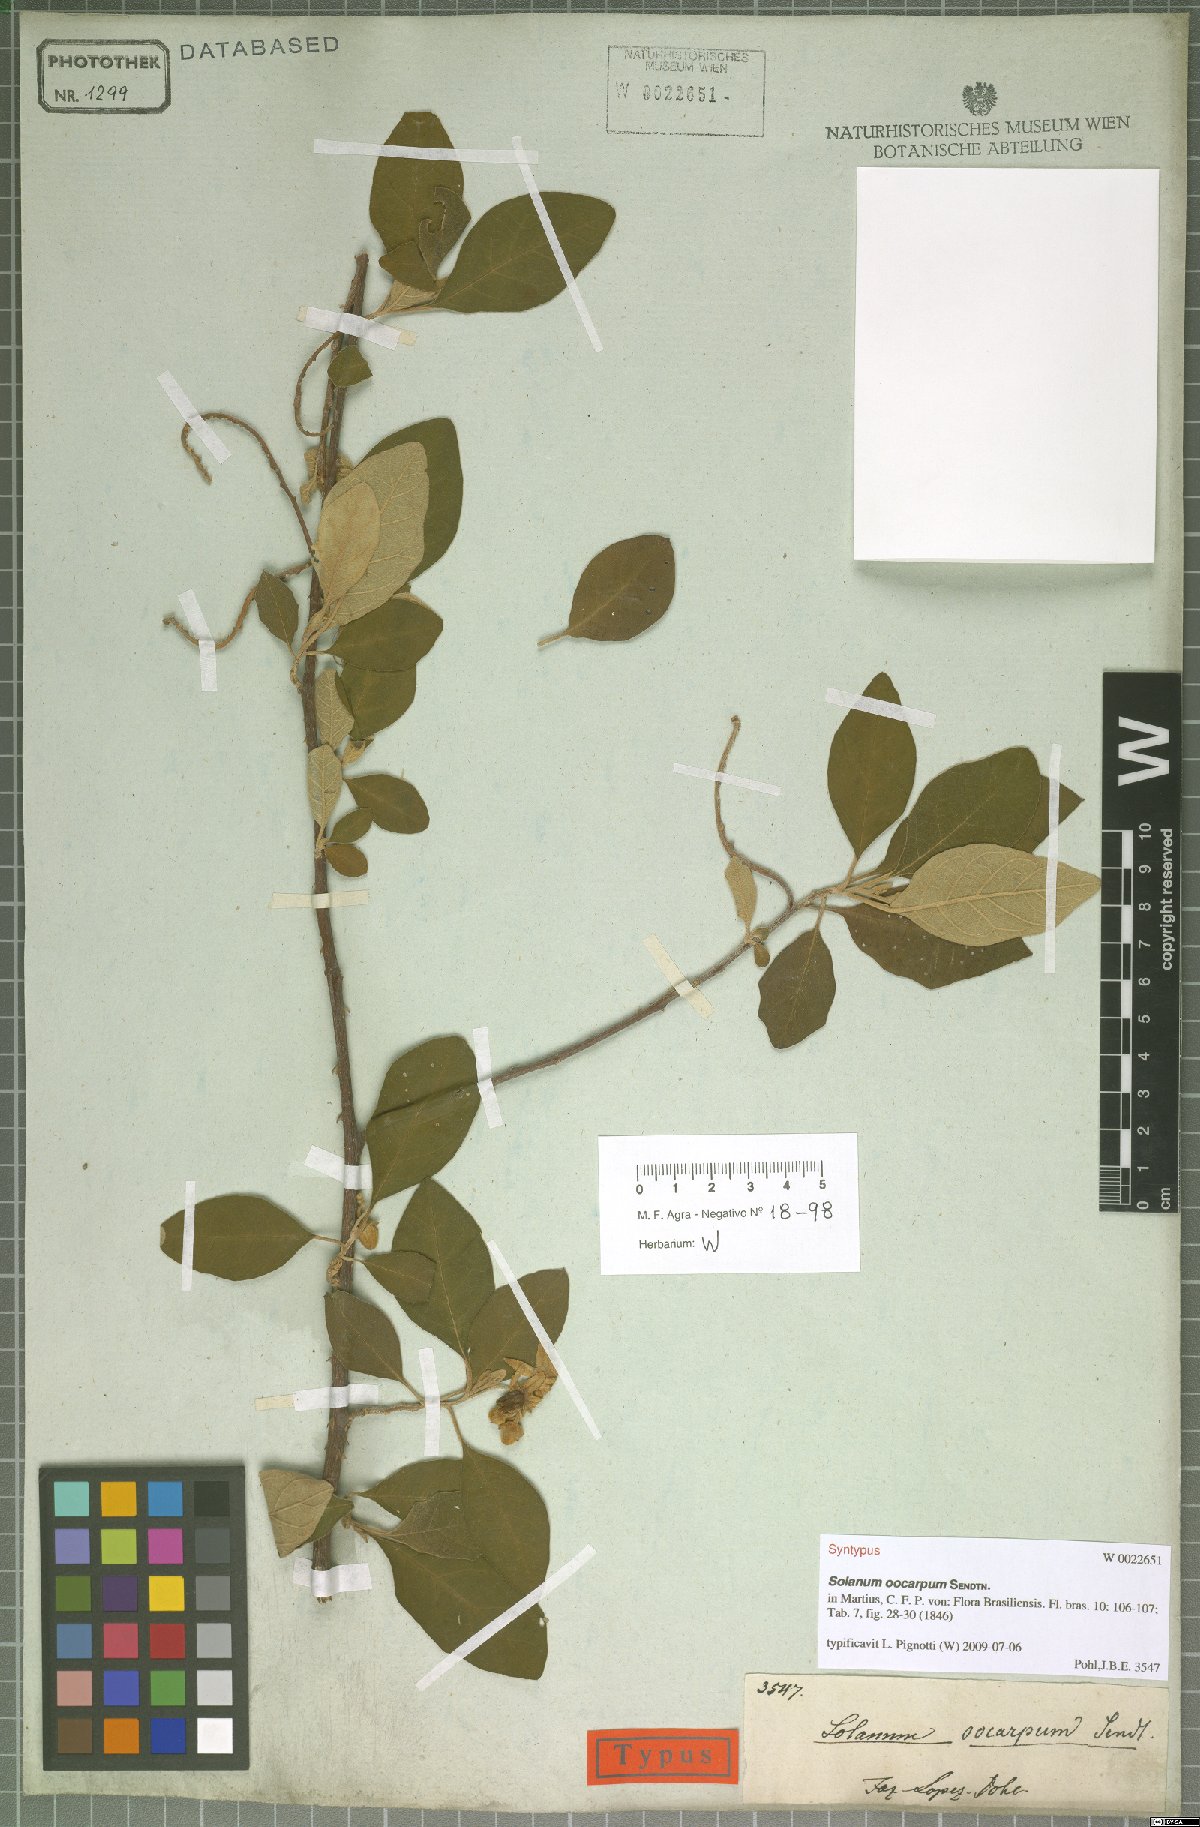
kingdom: Plantae
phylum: Tracheophyta
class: Magnoliopsida
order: Solanales
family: Solanaceae
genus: Solanum
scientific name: Solanum oocarpum
